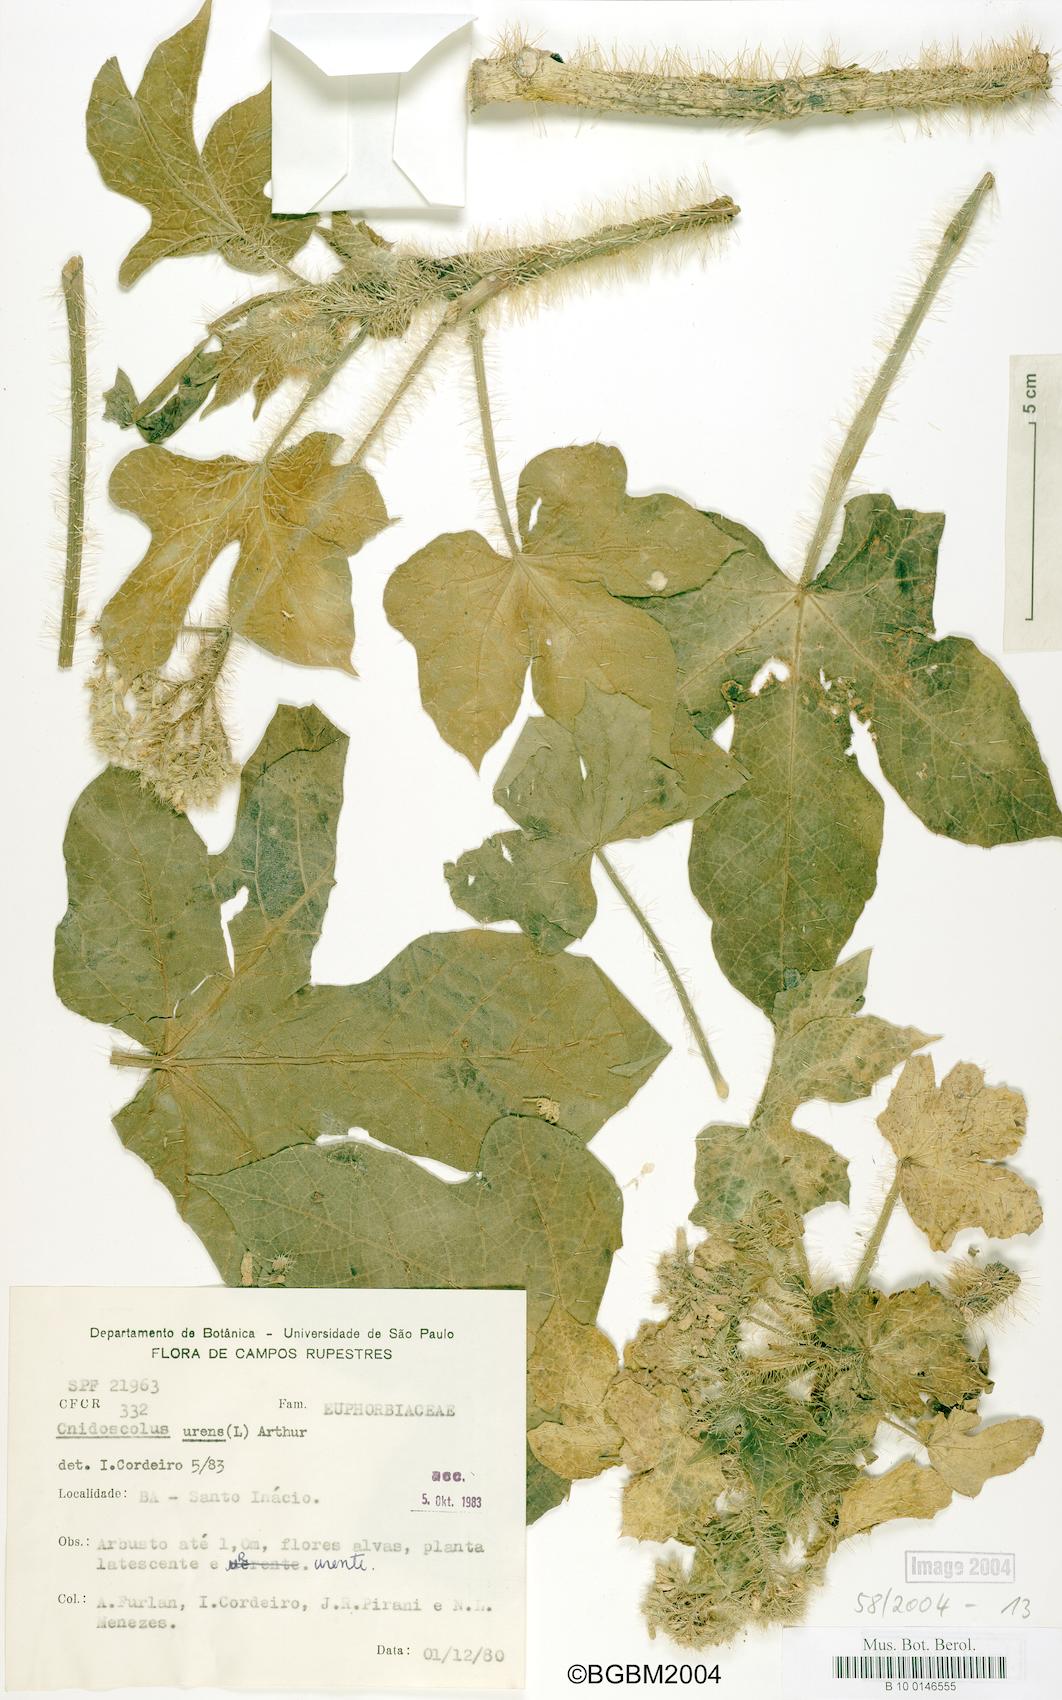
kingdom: Plantae
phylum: Tracheophyta
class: Magnoliopsida
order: Malpighiales
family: Euphorbiaceae
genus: Cnidoscolus
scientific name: Cnidoscolus urens
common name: Bull-nettle
